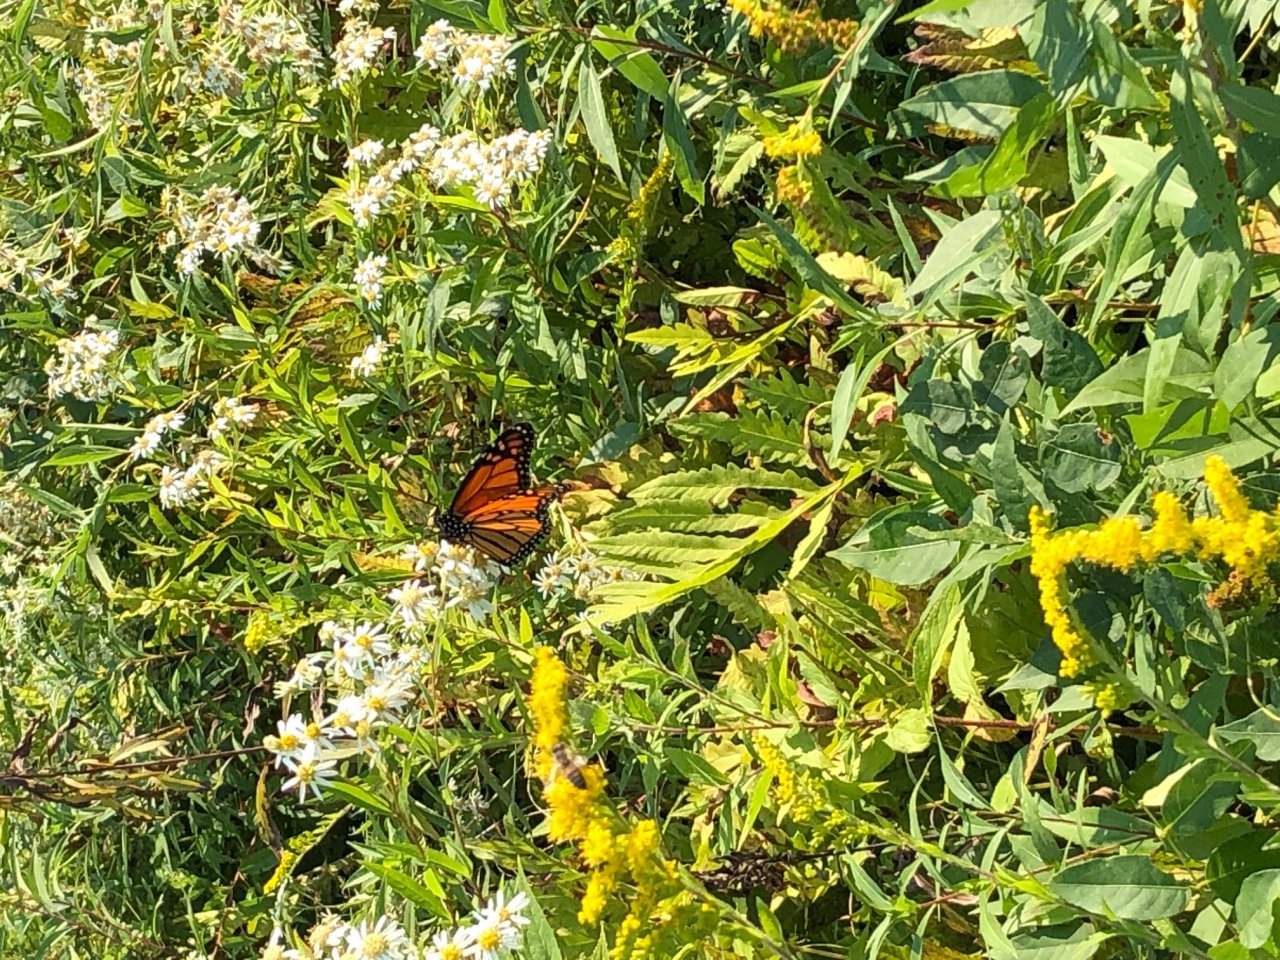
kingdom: Animalia
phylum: Arthropoda
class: Insecta
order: Lepidoptera
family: Nymphalidae
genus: Danaus
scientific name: Danaus plexippus
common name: Monarch
